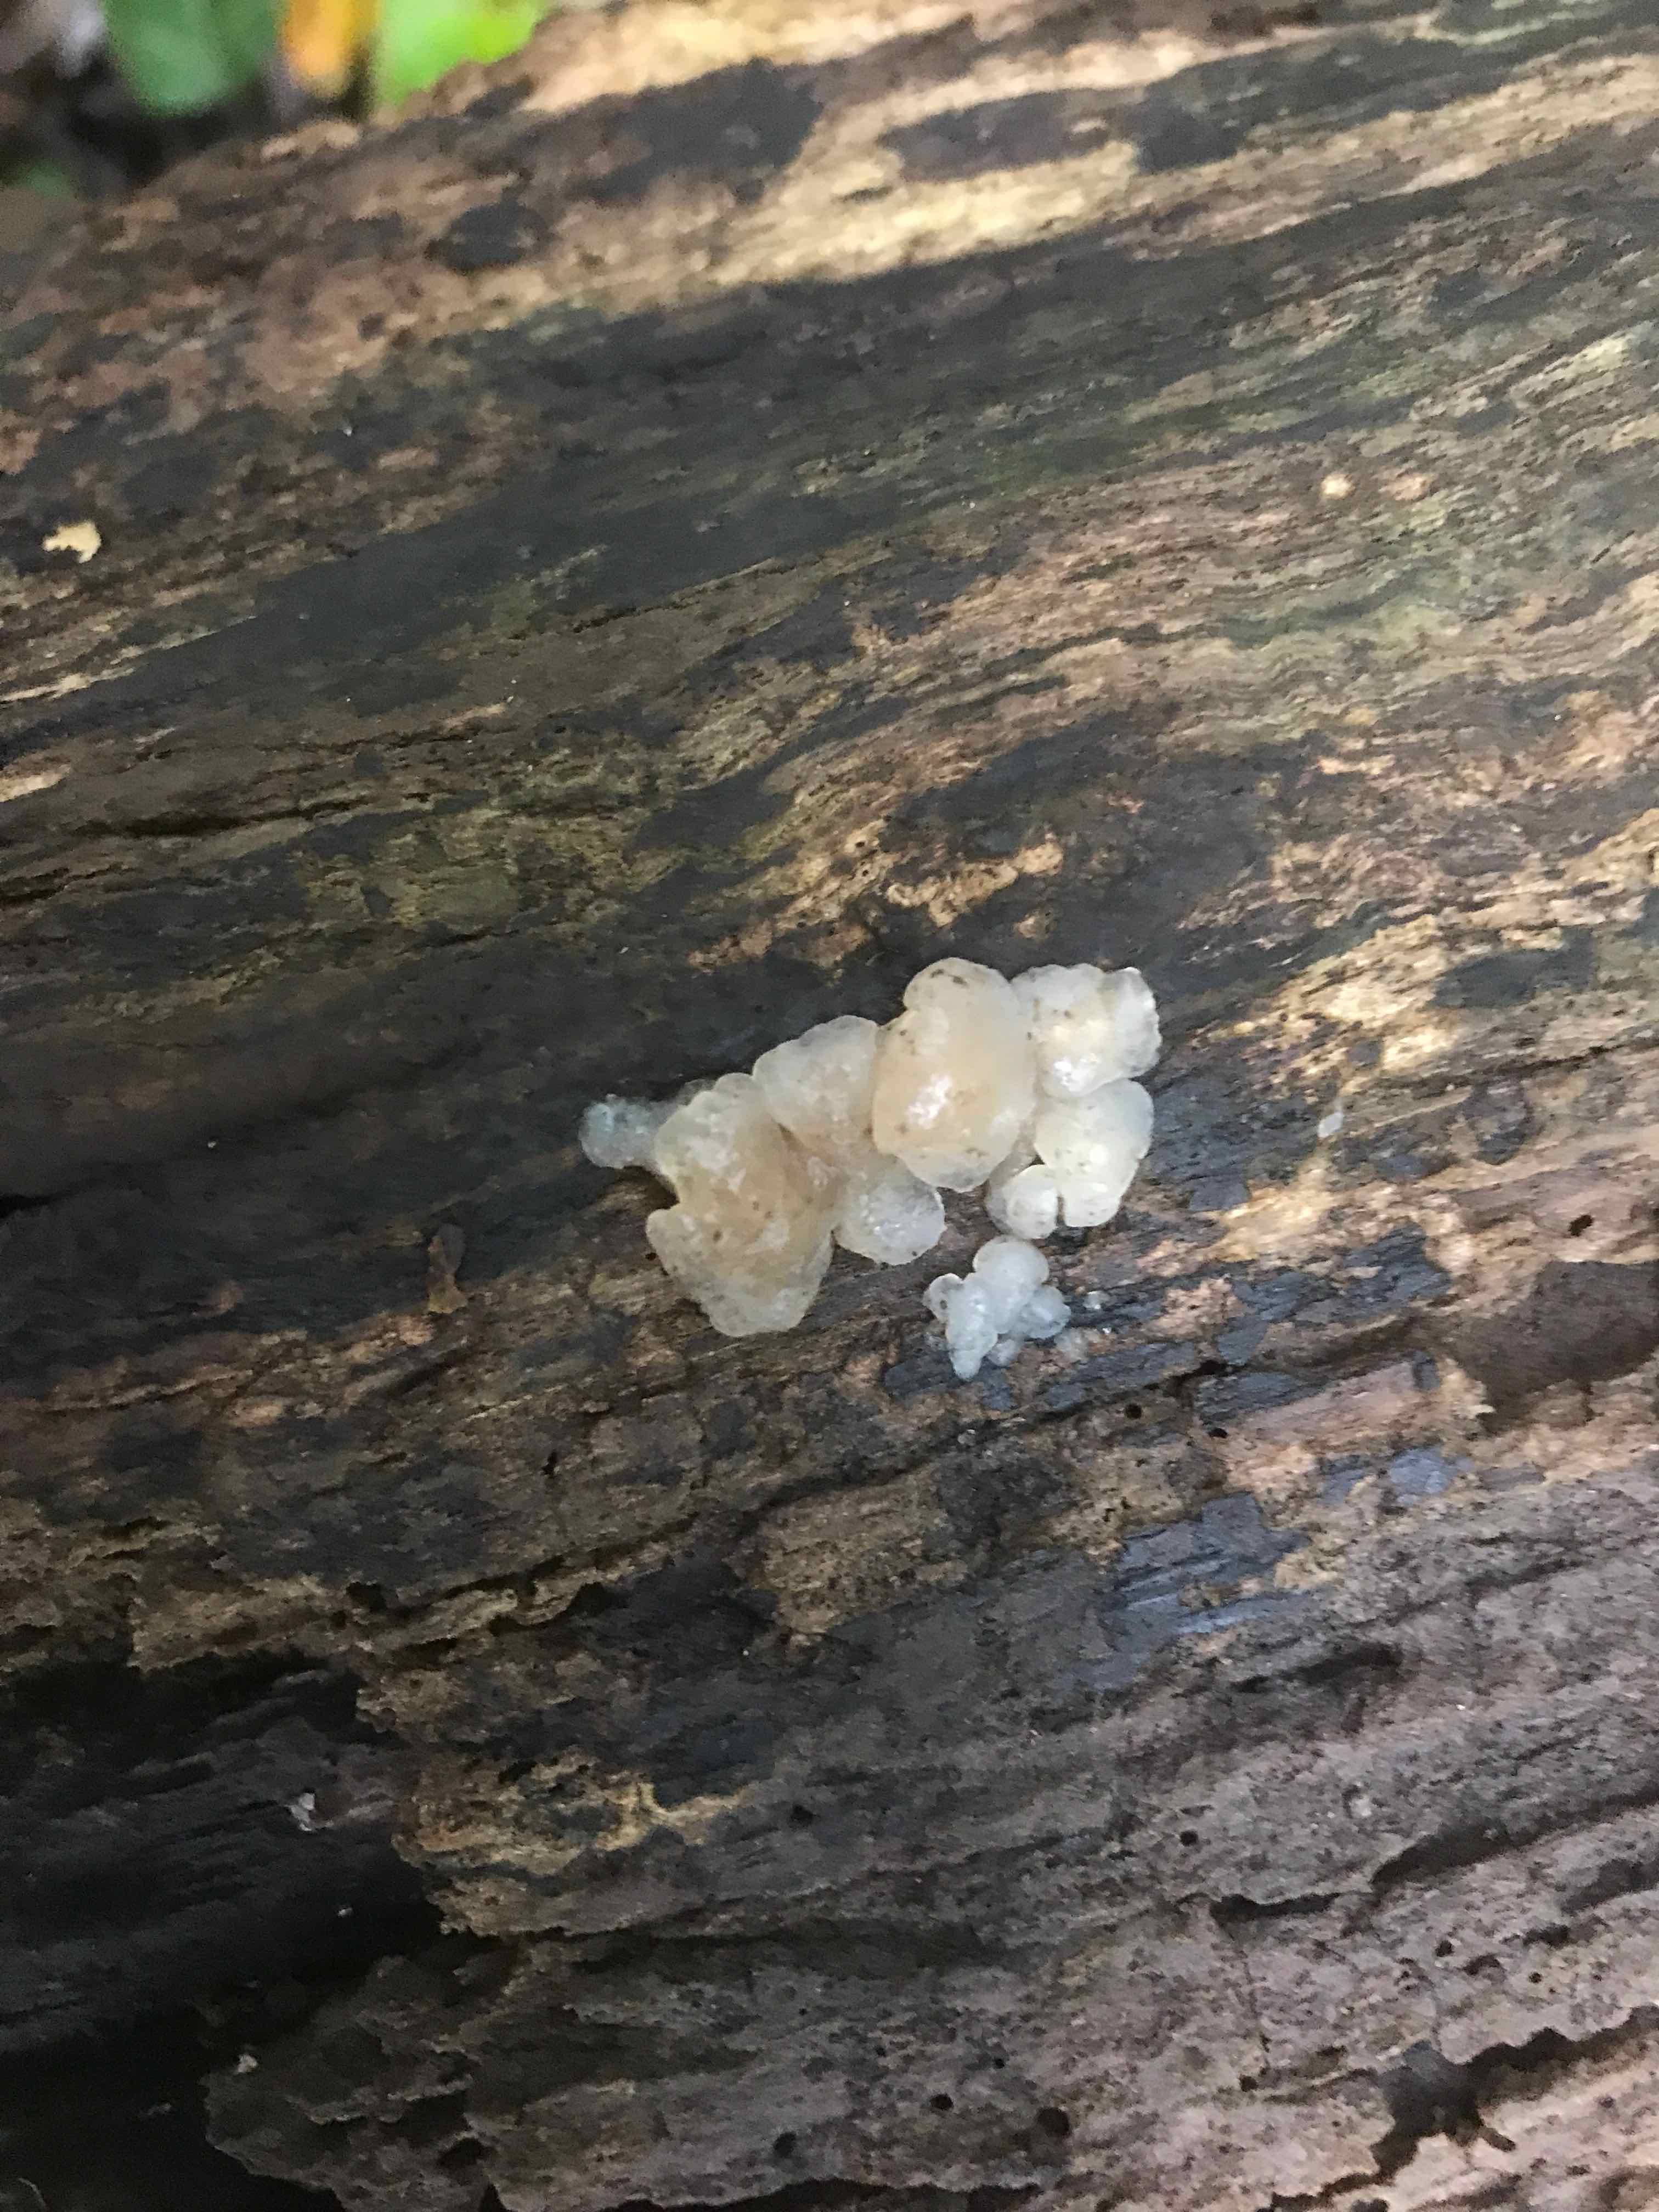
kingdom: Fungi
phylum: Basidiomycota
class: Agaricomycetes
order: Auriculariales
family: Hyaloriaceae
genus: Myxarium
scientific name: Myxarium nucleatum
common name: klar bævretop
